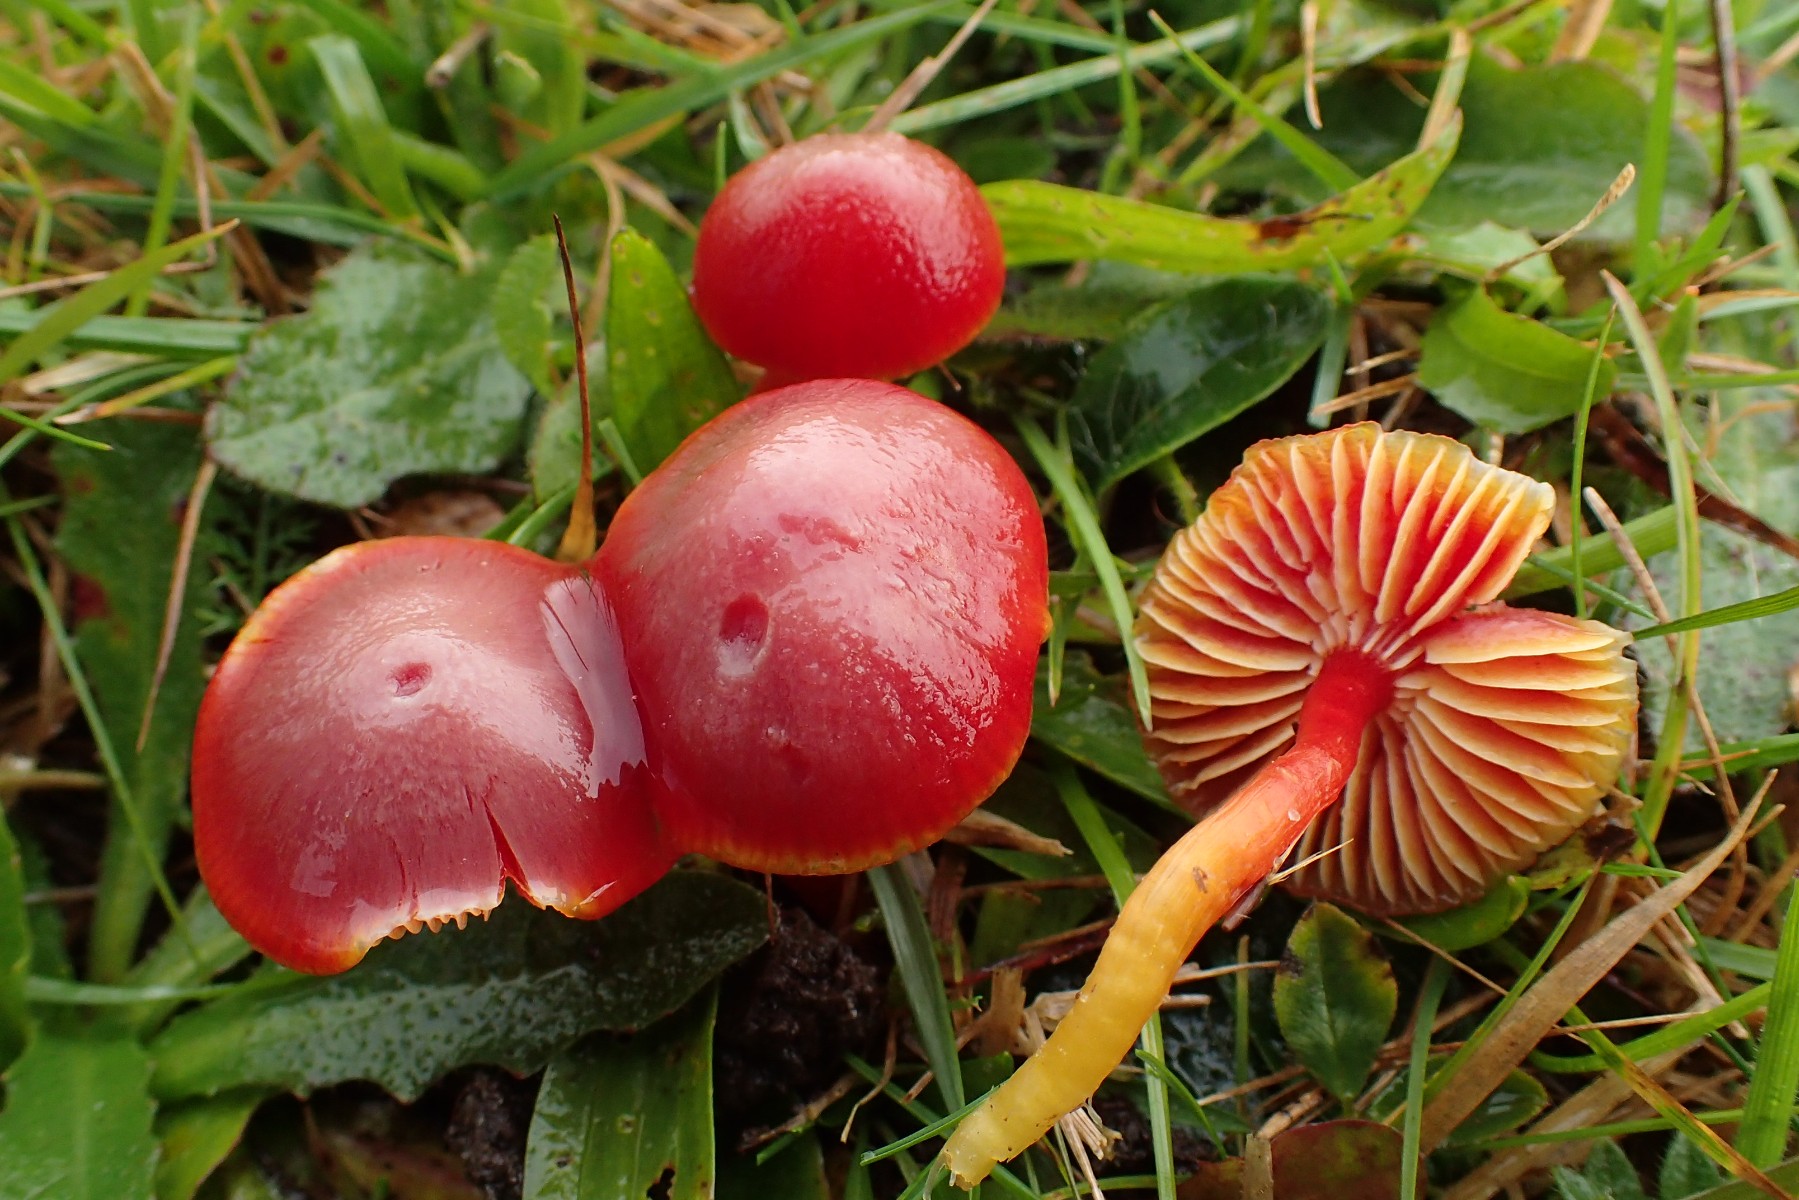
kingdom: Fungi
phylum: Basidiomycota
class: Agaricomycetes
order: Agaricales
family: Hygrophoraceae
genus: Hygrocybe
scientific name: Hygrocybe coccinea
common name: cinnober-vokshat
